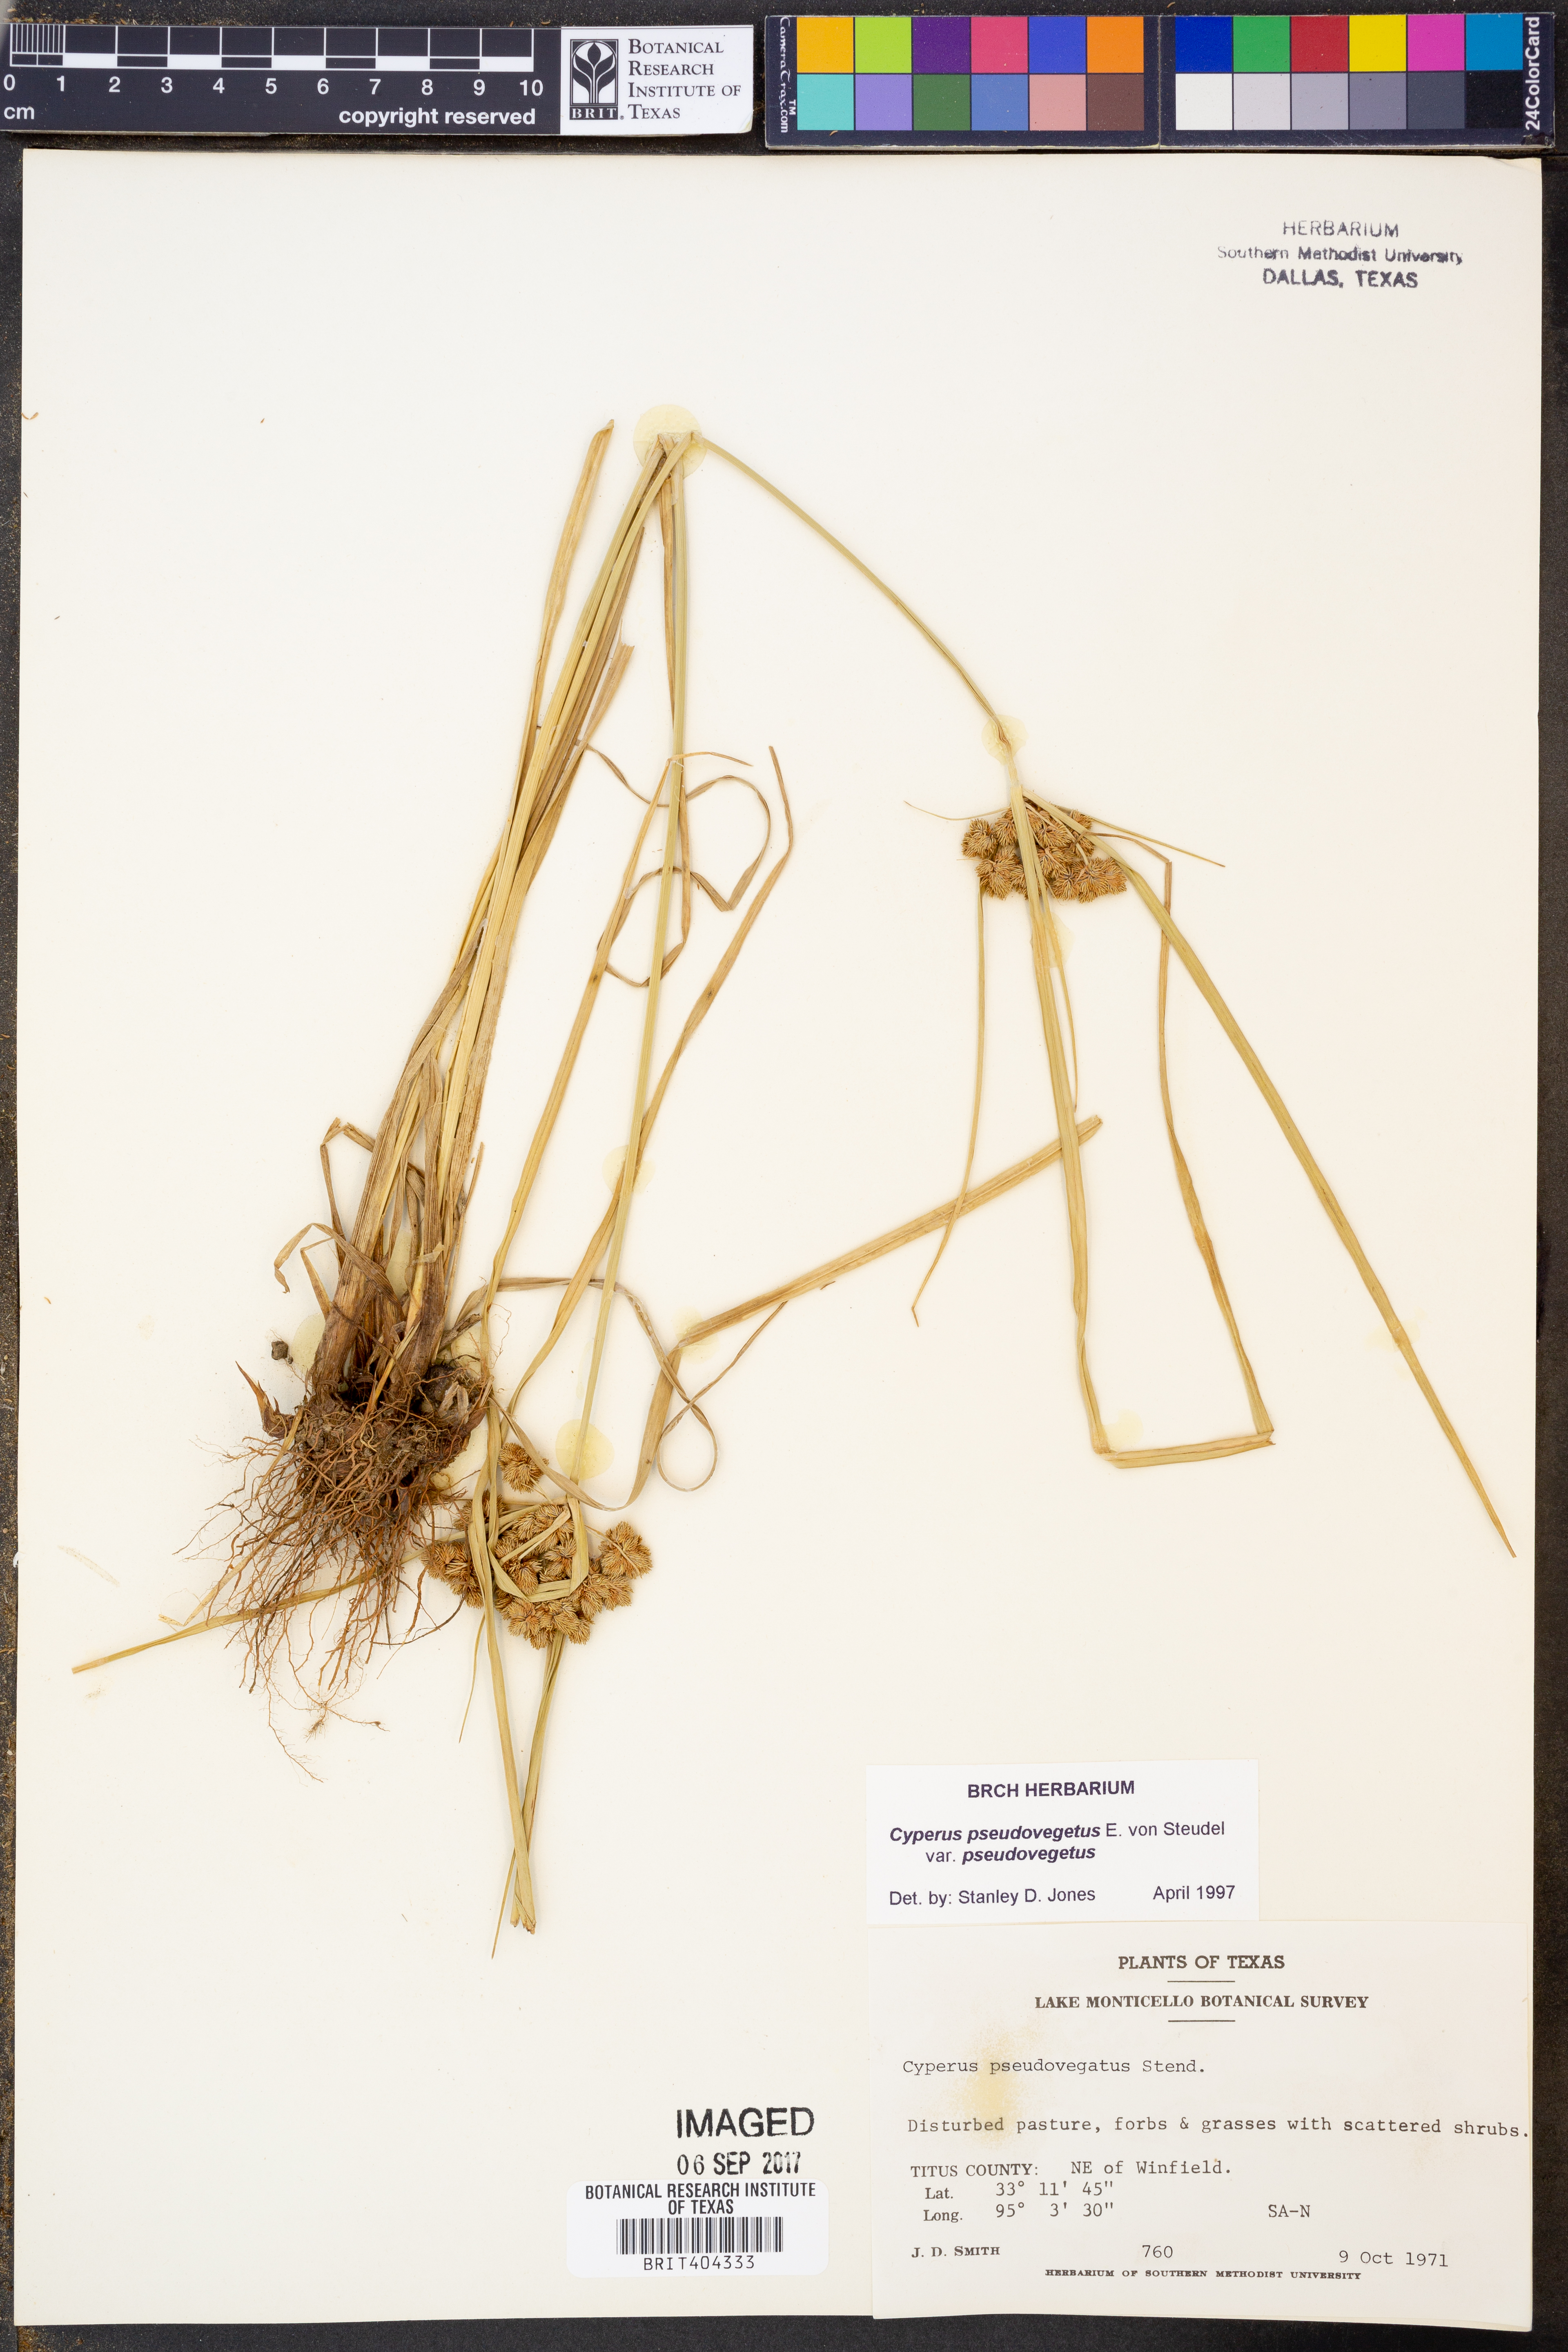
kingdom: Plantae
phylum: Tracheophyta
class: Liliopsida
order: Poales
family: Cyperaceae
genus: Cyperus
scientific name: Cyperus pseudovegetus
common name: Marsh flat sedge
